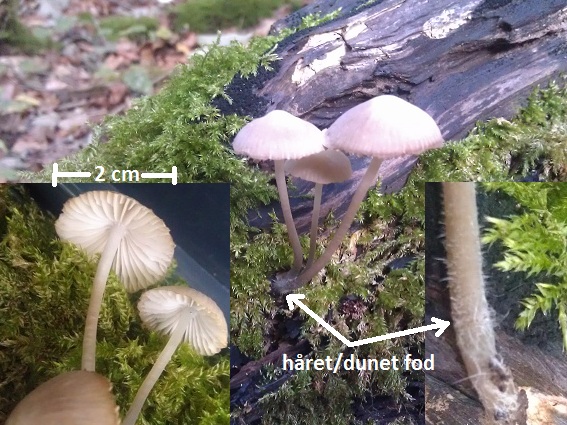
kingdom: Fungi
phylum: Basidiomycota
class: Agaricomycetes
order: Agaricales
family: Mycenaceae
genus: Mycena
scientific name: Mycena abramsii
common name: sommer-huesvamp
